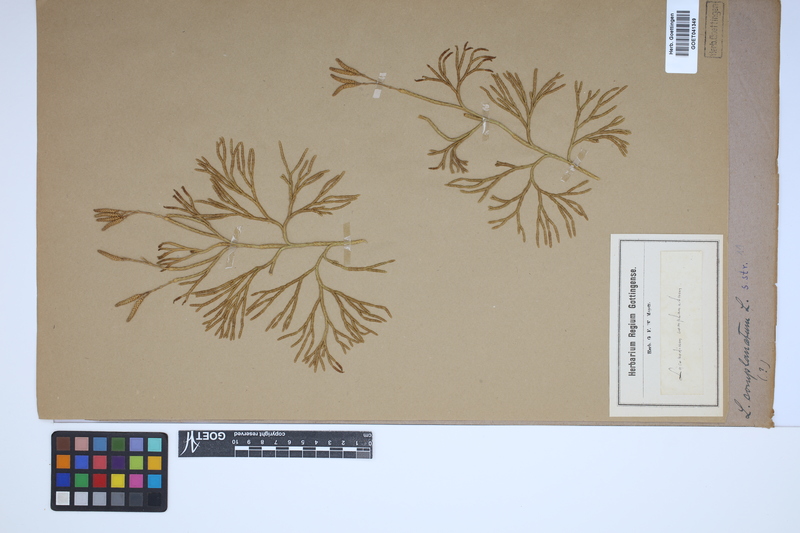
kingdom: Plantae
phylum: Tracheophyta
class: Lycopodiopsida
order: Lycopodiales
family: Lycopodiaceae
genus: Diphasiastrum
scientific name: Diphasiastrum complanatum
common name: Northern running-pine
